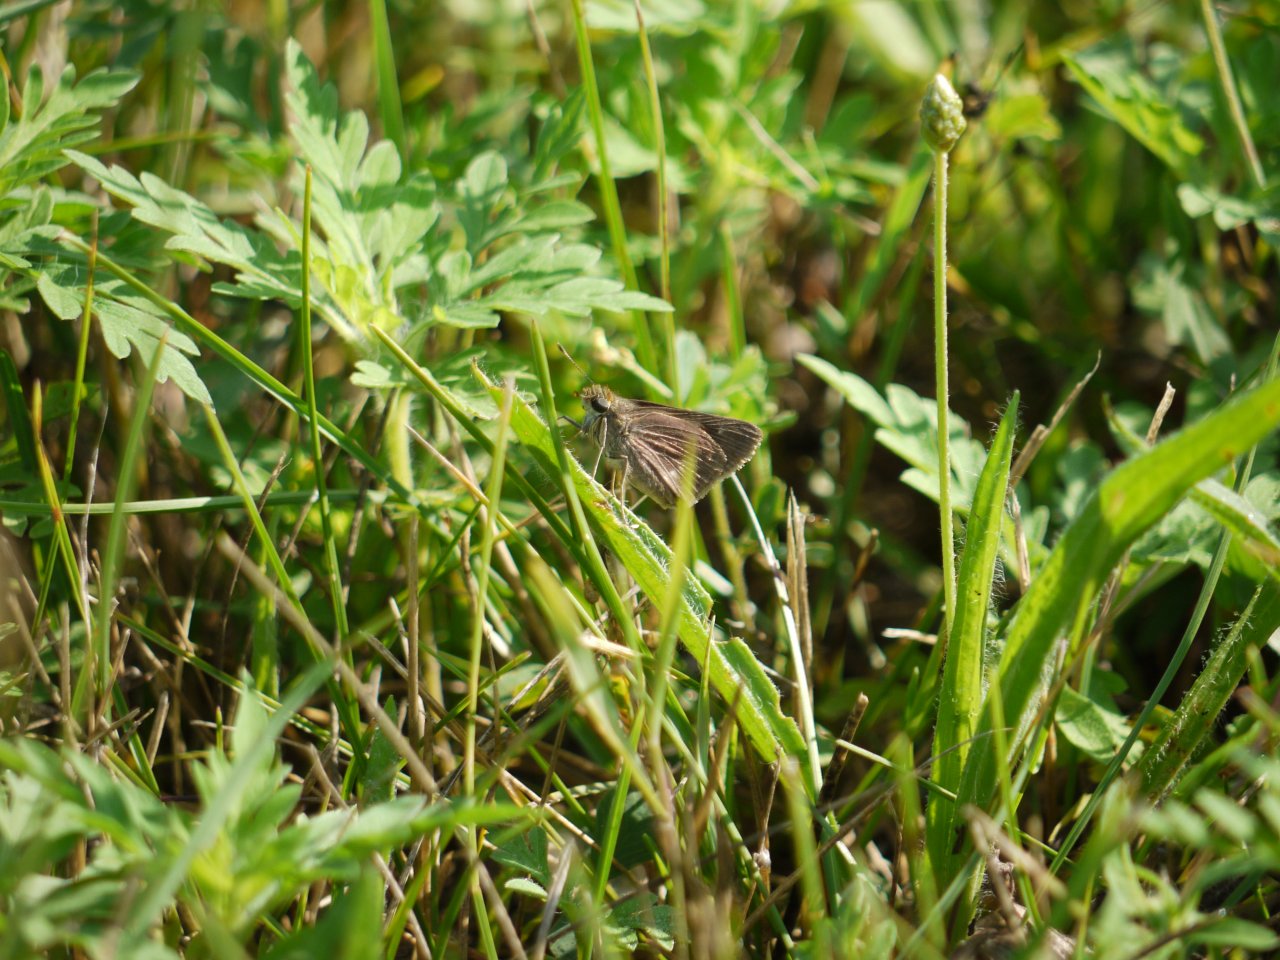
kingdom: Animalia
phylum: Arthropoda
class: Insecta
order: Lepidoptera
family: Hesperiidae
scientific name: Hesperiidae
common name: Skippers
